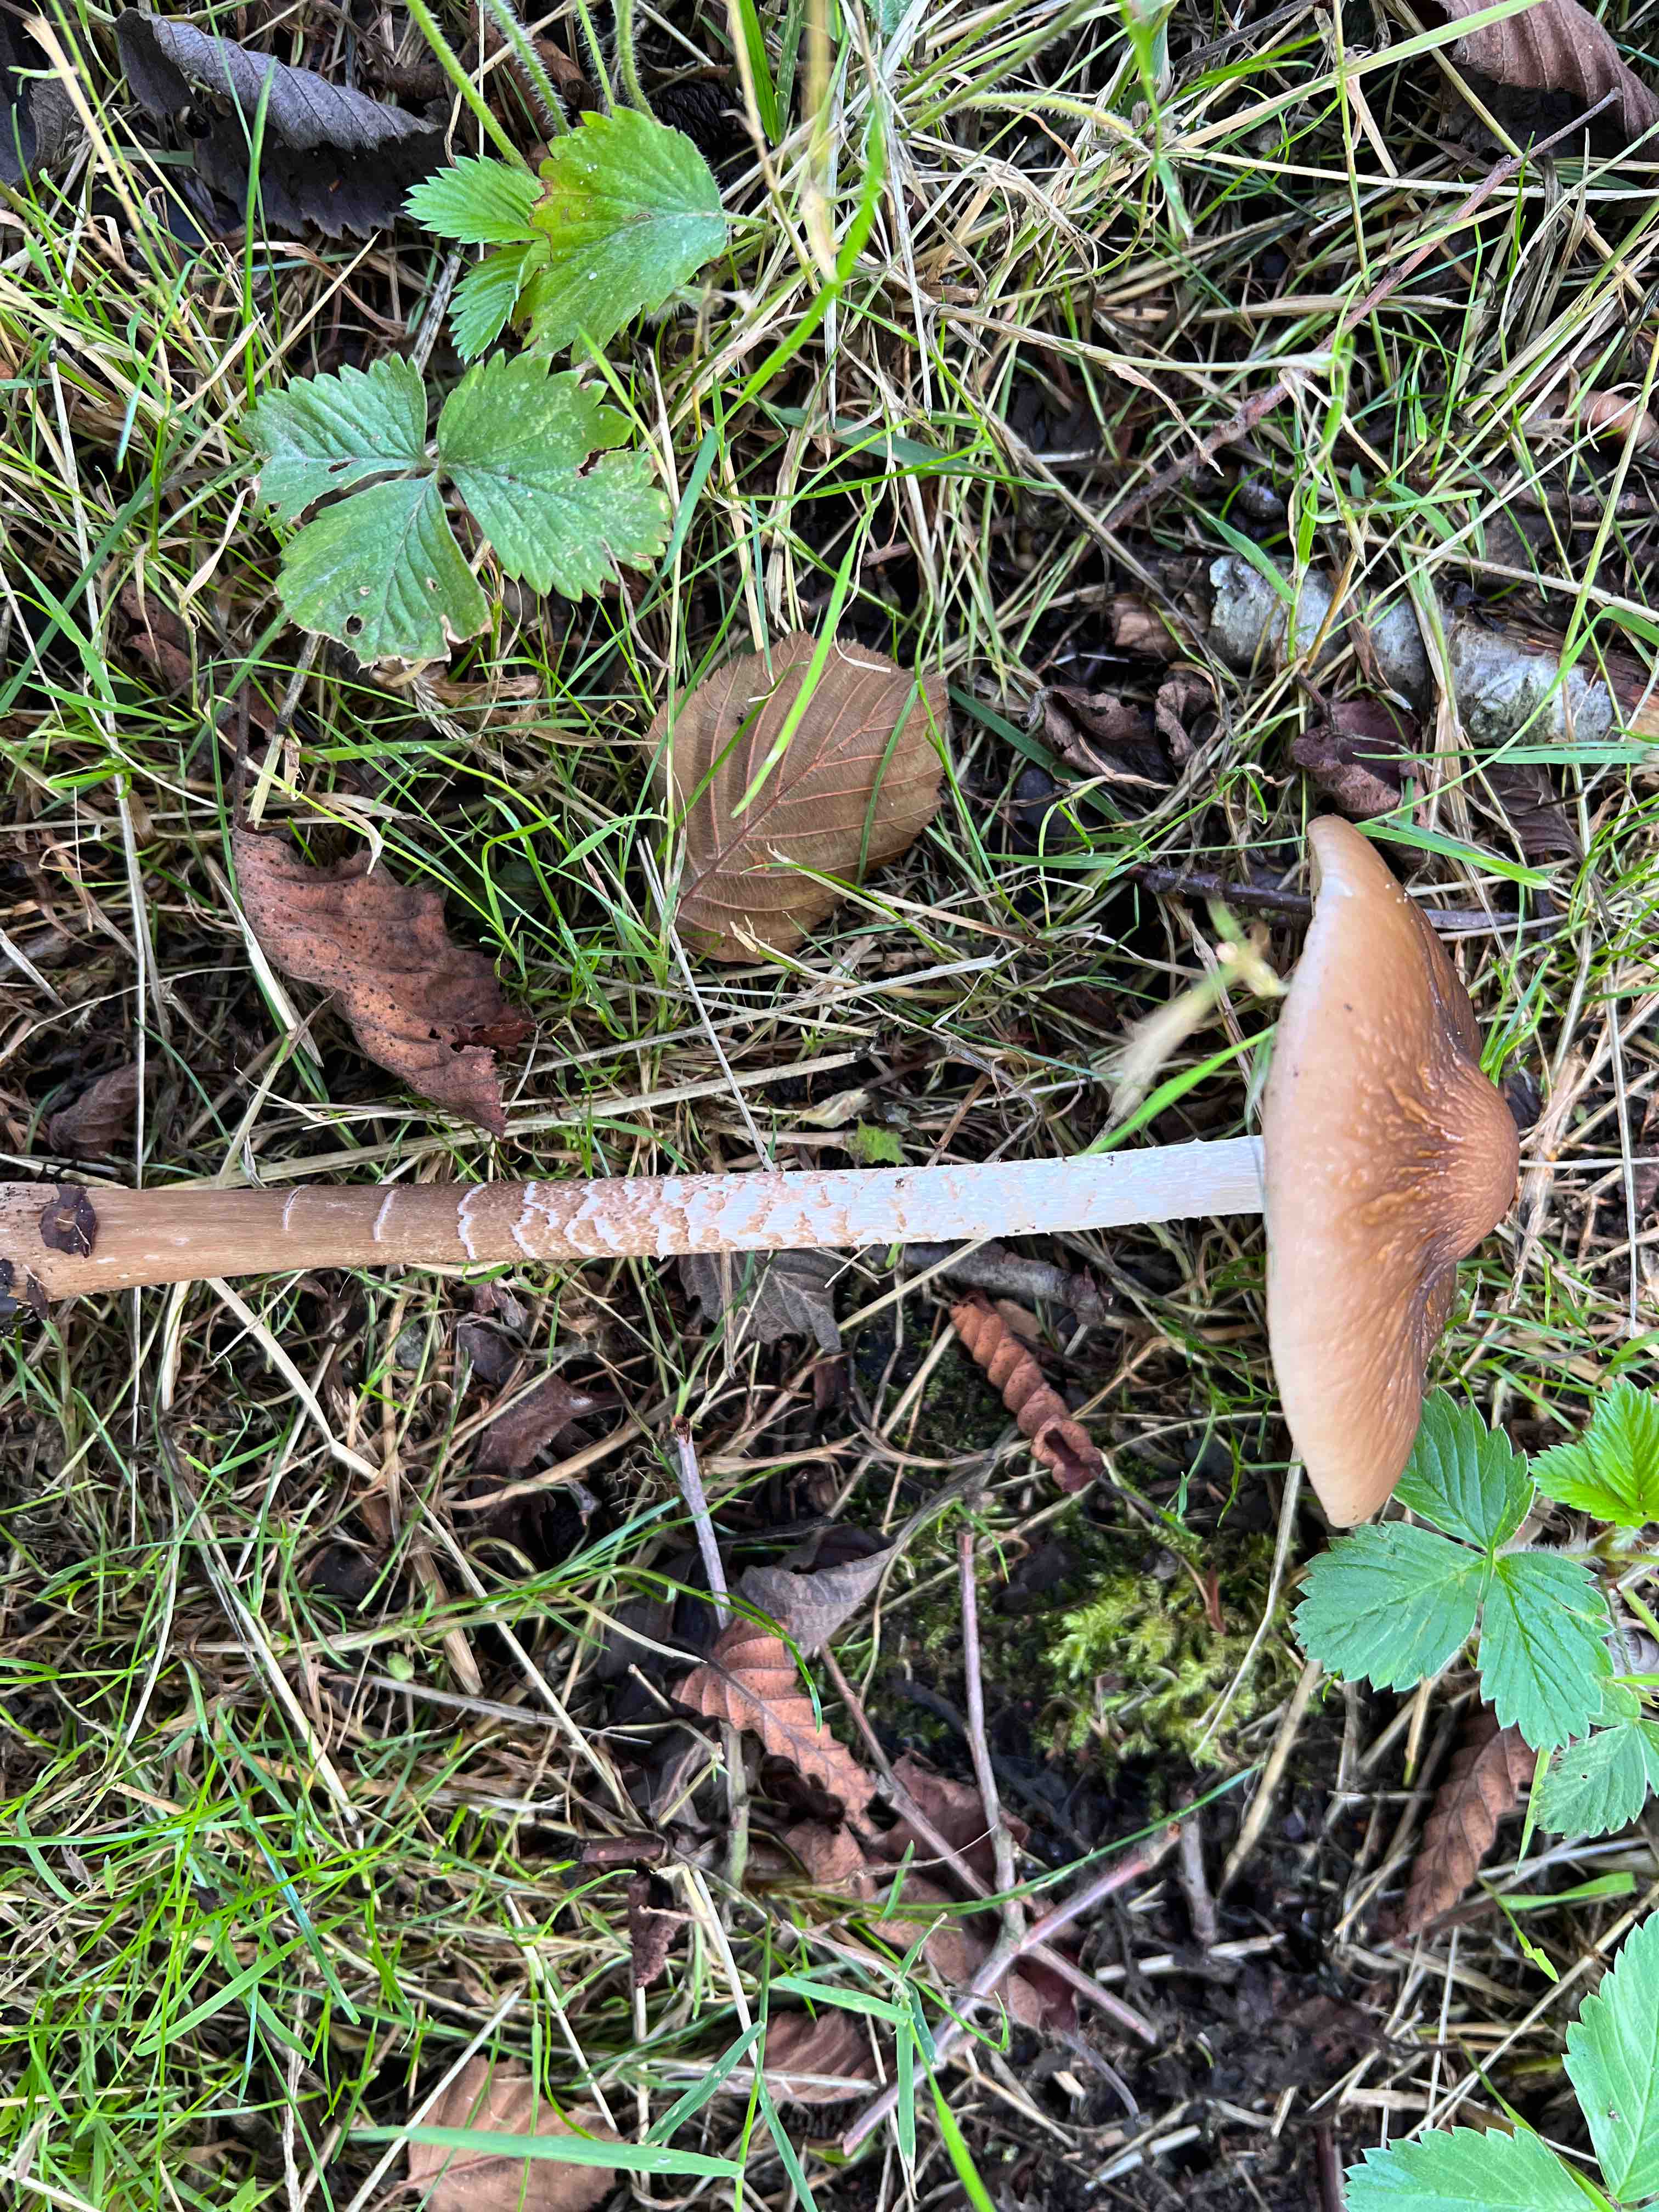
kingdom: Fungi
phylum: Basidiomycota
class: Agaricomycetes
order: Agaricales
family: Physalacriaceae
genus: Hymenopellis
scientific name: Hymenopellis radicata
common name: almindelig pælerodshat
